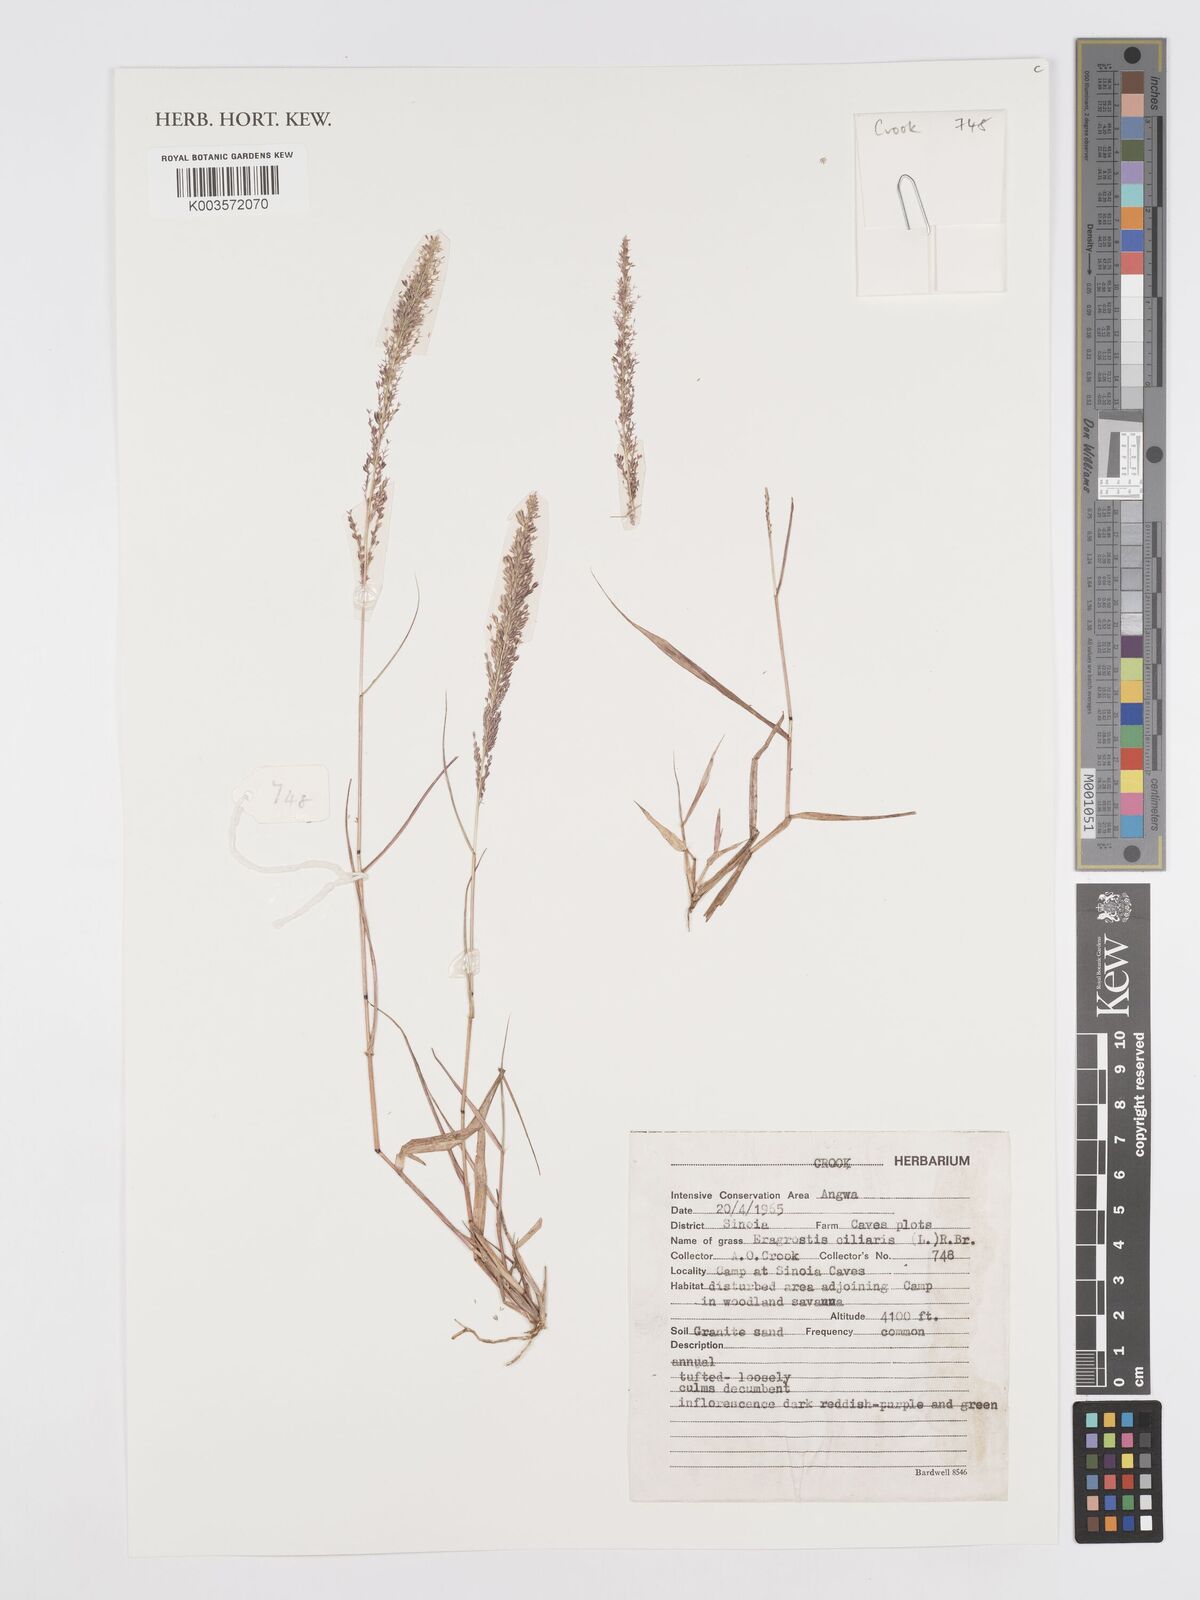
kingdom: Plantae
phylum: Tracheophyta
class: Liliopsida
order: Poales
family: Poaceae
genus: Eragrostis
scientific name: Eragrostis ciliaris
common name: Gophertail lovegrass
